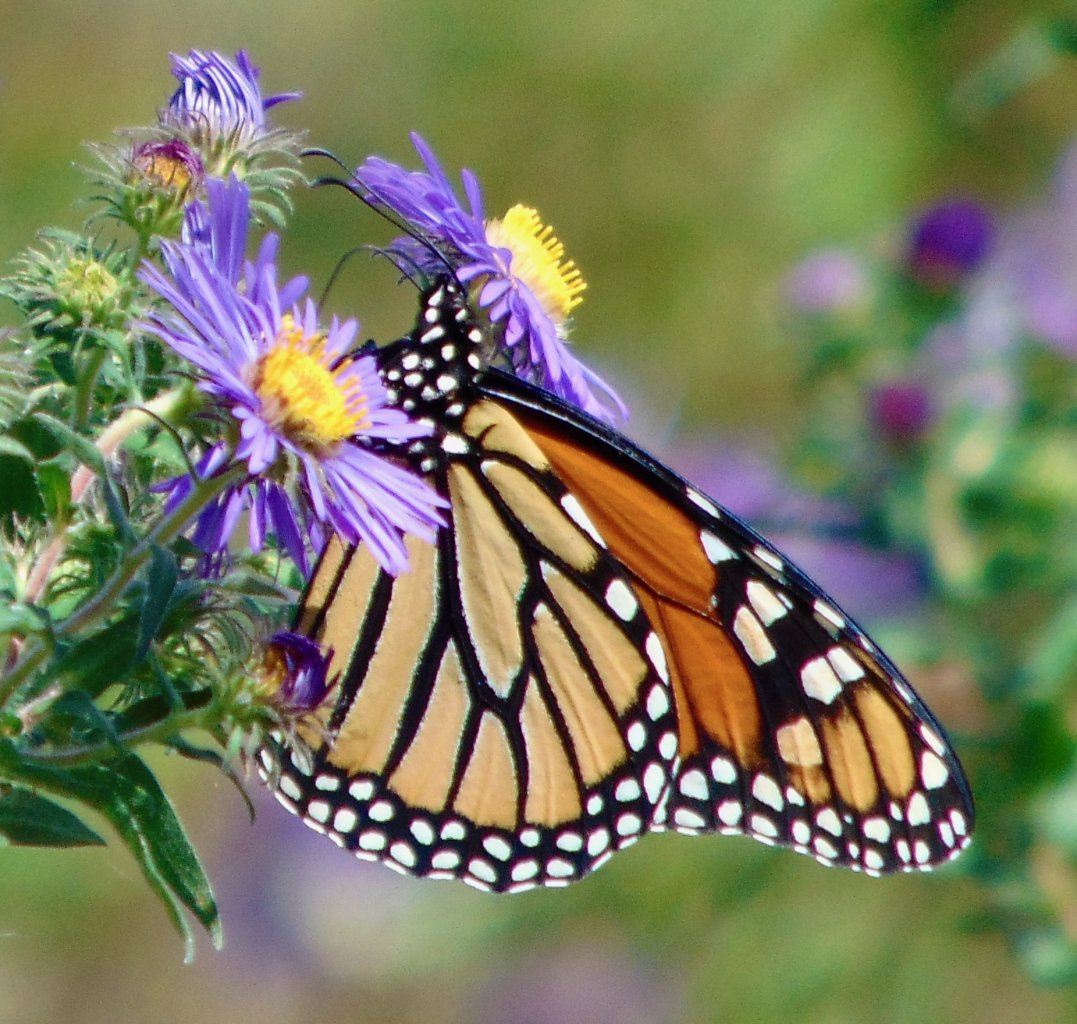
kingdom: Animalia
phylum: Arthropoda
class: Insecta
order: Lepidoptera
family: Nymphalidae
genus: Danaus
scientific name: Danaus plexippus
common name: Monarch
